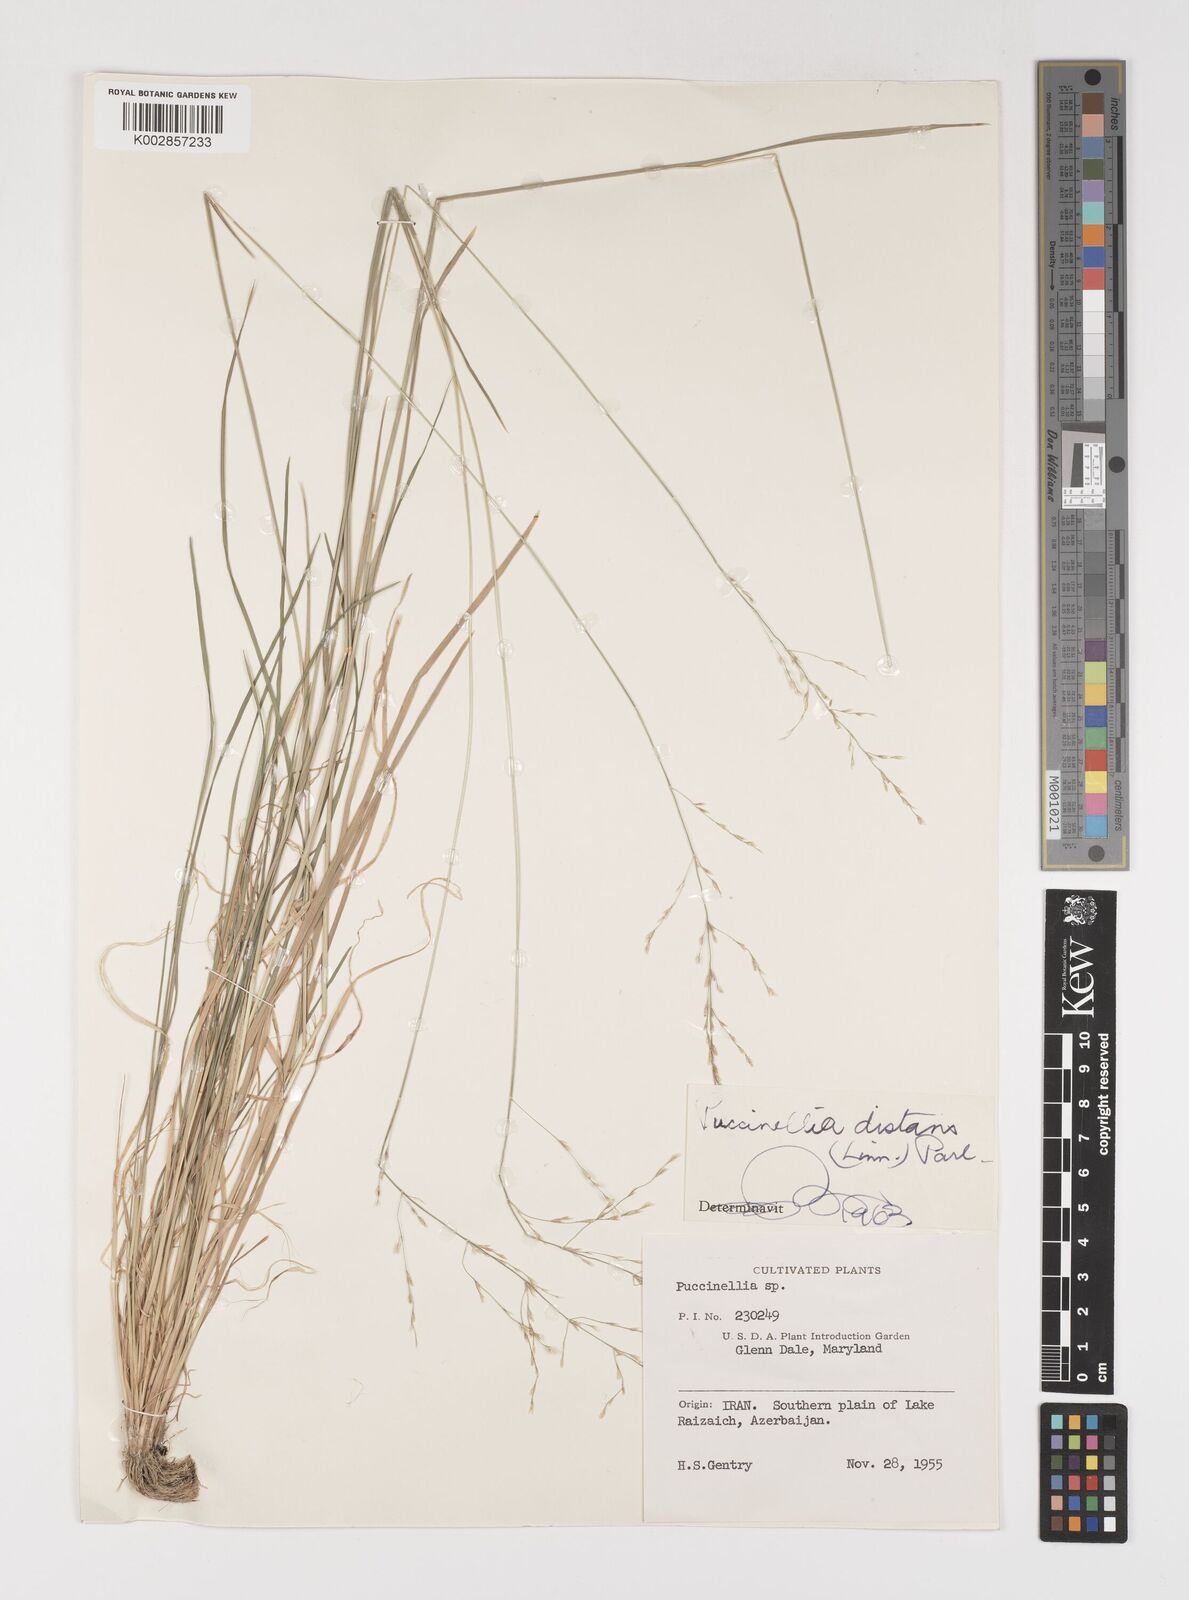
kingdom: Plantae
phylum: Tracheophyta
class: Liliopsida
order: Poales
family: Poaceae
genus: Puccinellia
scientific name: Puccinellia distans
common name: Weeping alkaligrass
